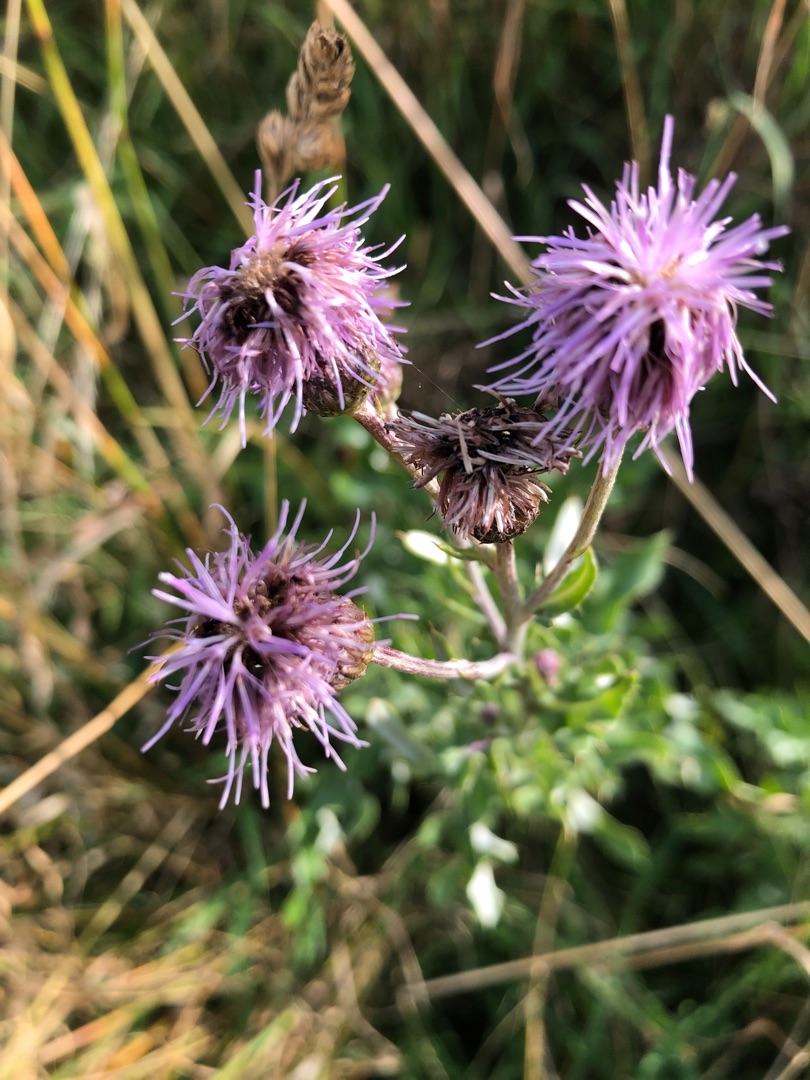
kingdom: Plantae
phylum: Tracheophyta
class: Magnoliopsida
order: Asterales
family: Asteraceae
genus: Cirsium
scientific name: Cirsium arvense
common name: Ager-tidsel
